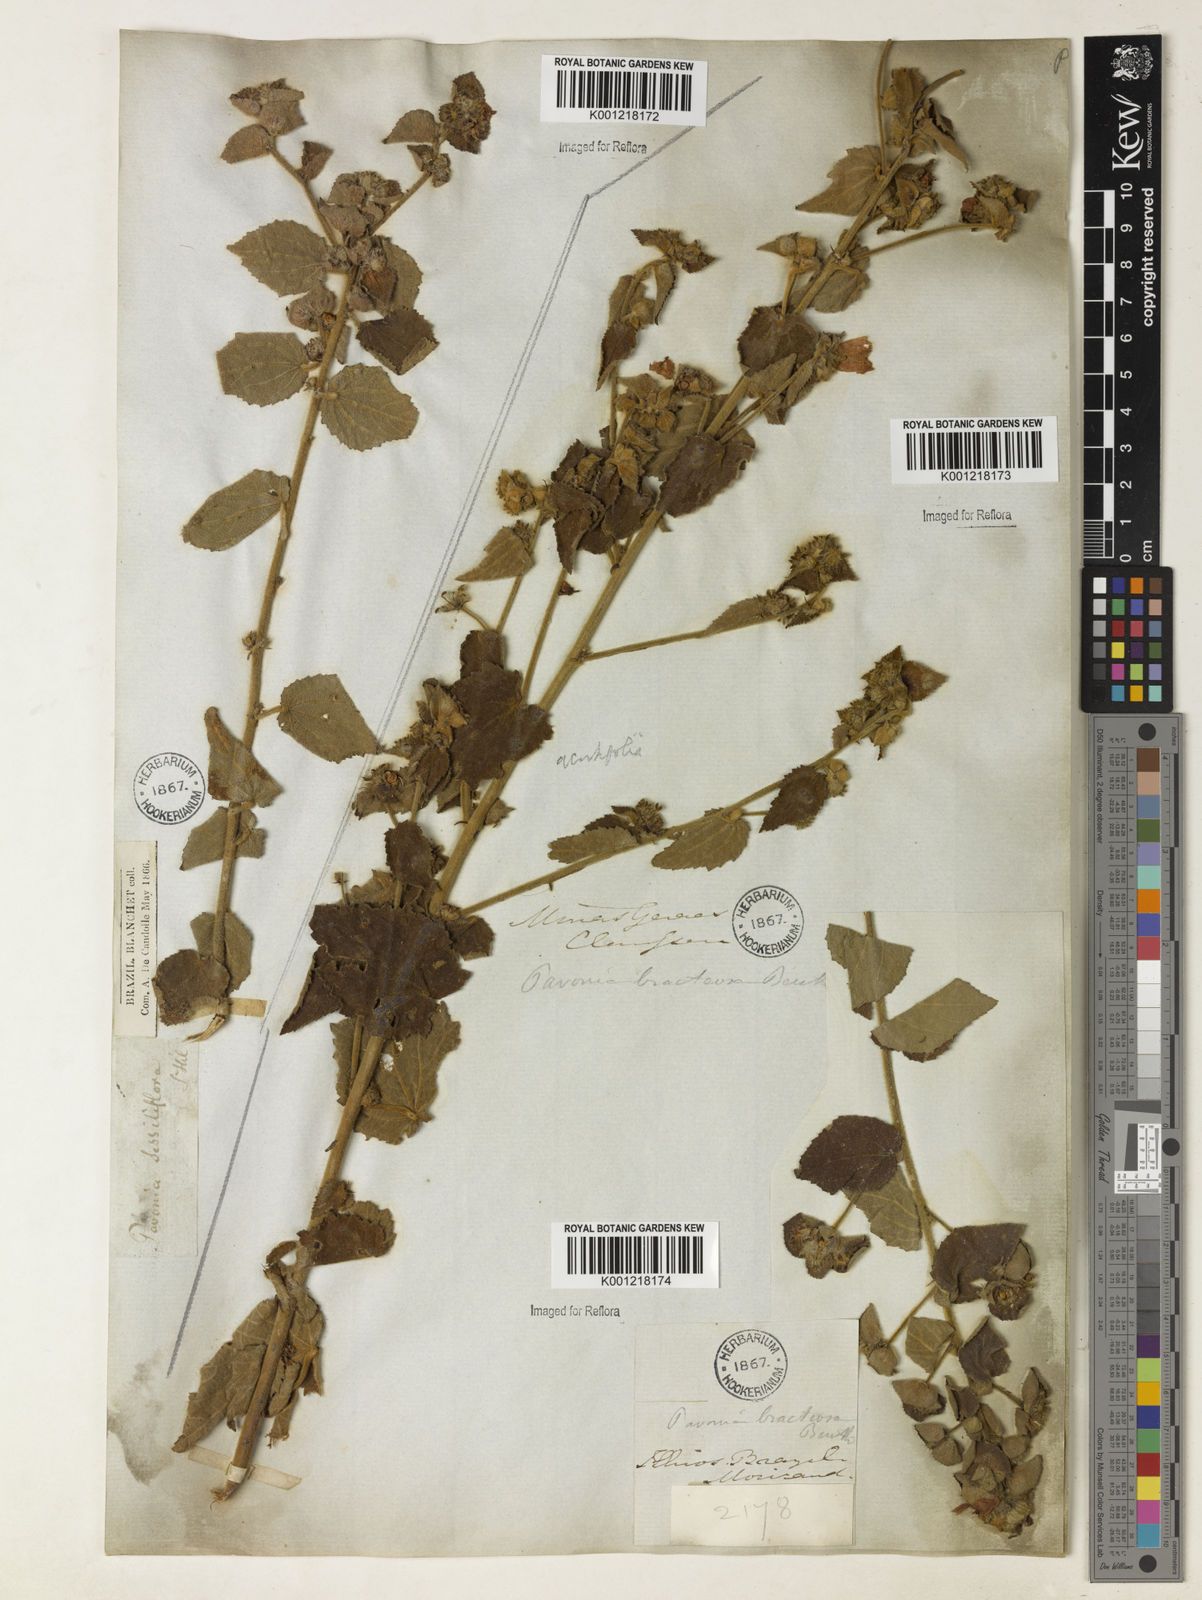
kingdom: Plantae
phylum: Tracheophyta
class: Magnoliopsida
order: Malvales
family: Malvaceae
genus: Peltaea
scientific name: Peltaea
